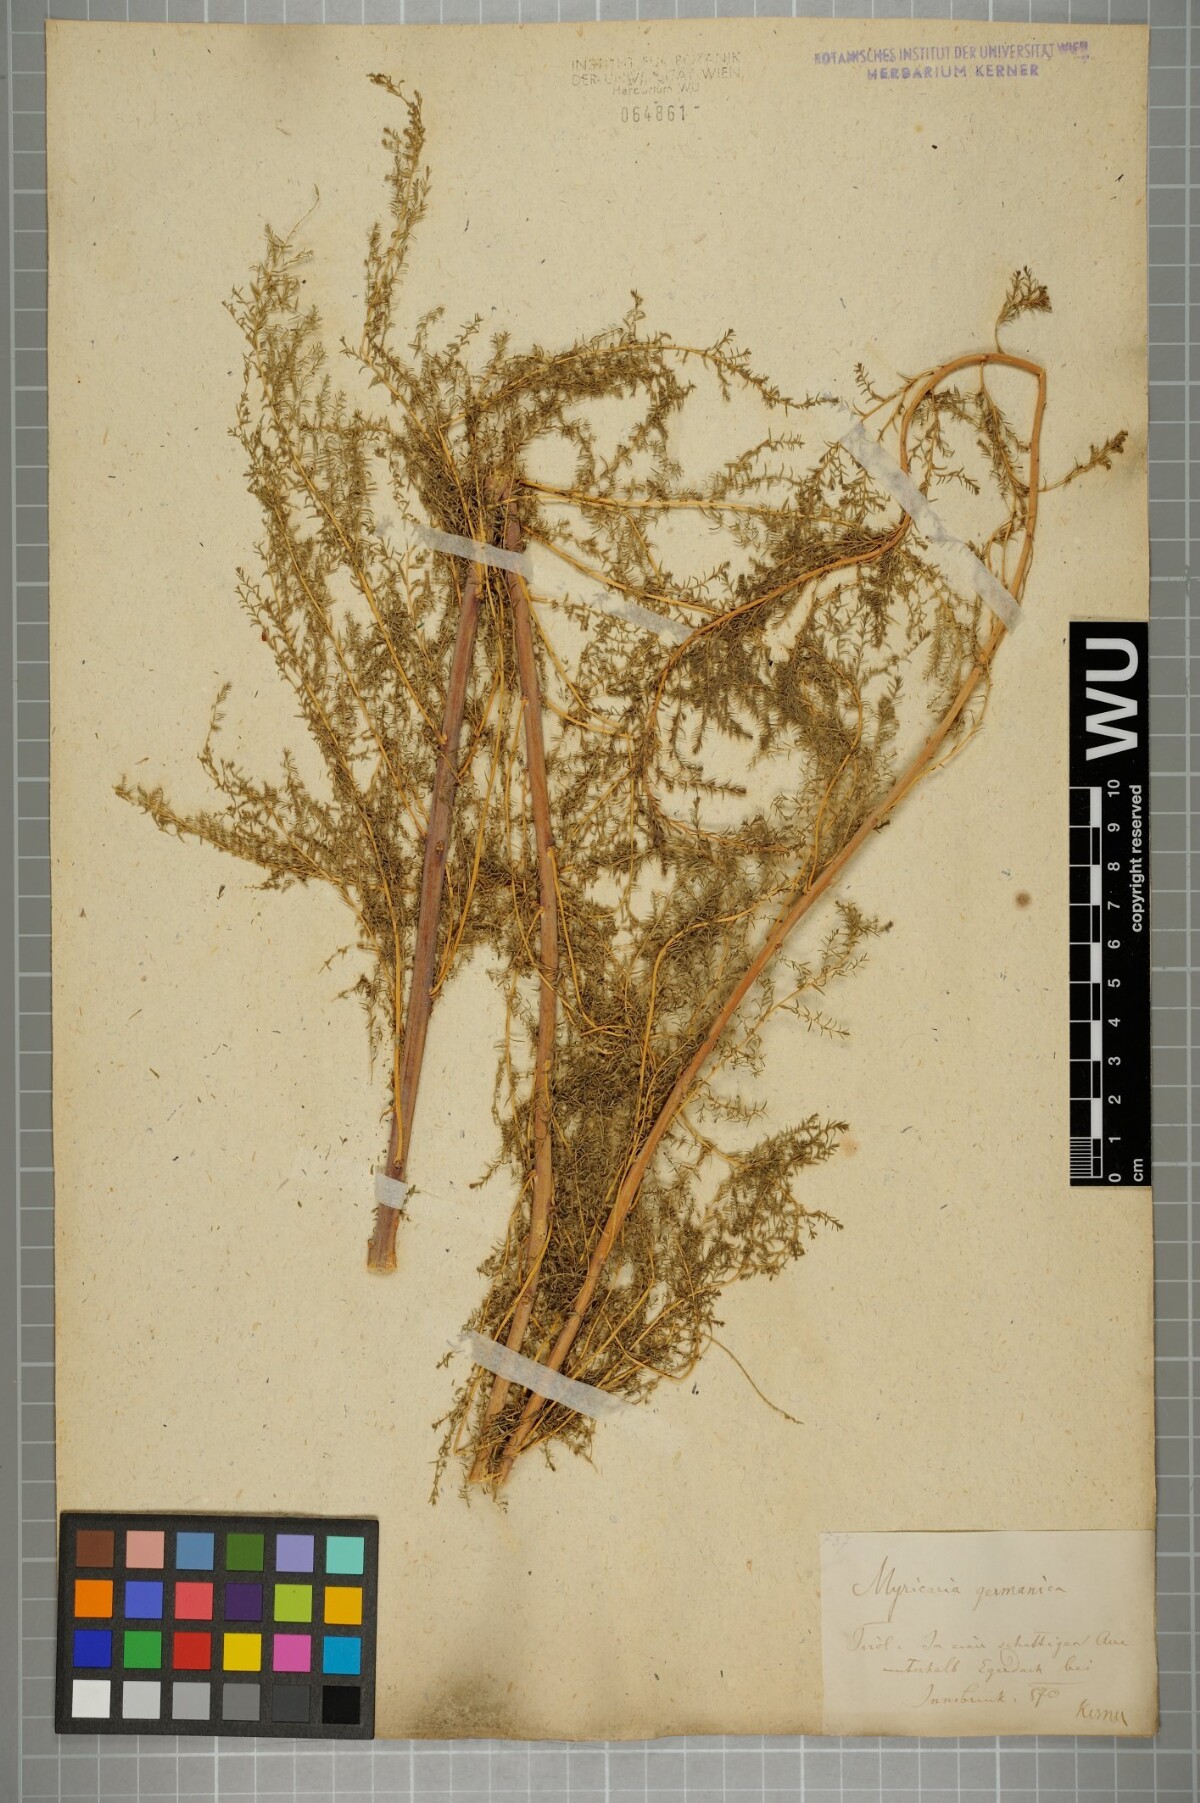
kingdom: Plantae
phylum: Tracheophyta
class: Magnoliopsida
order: Caryophyllales
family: Tamaricaceae
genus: Myricaria
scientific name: Myricaria germanica
